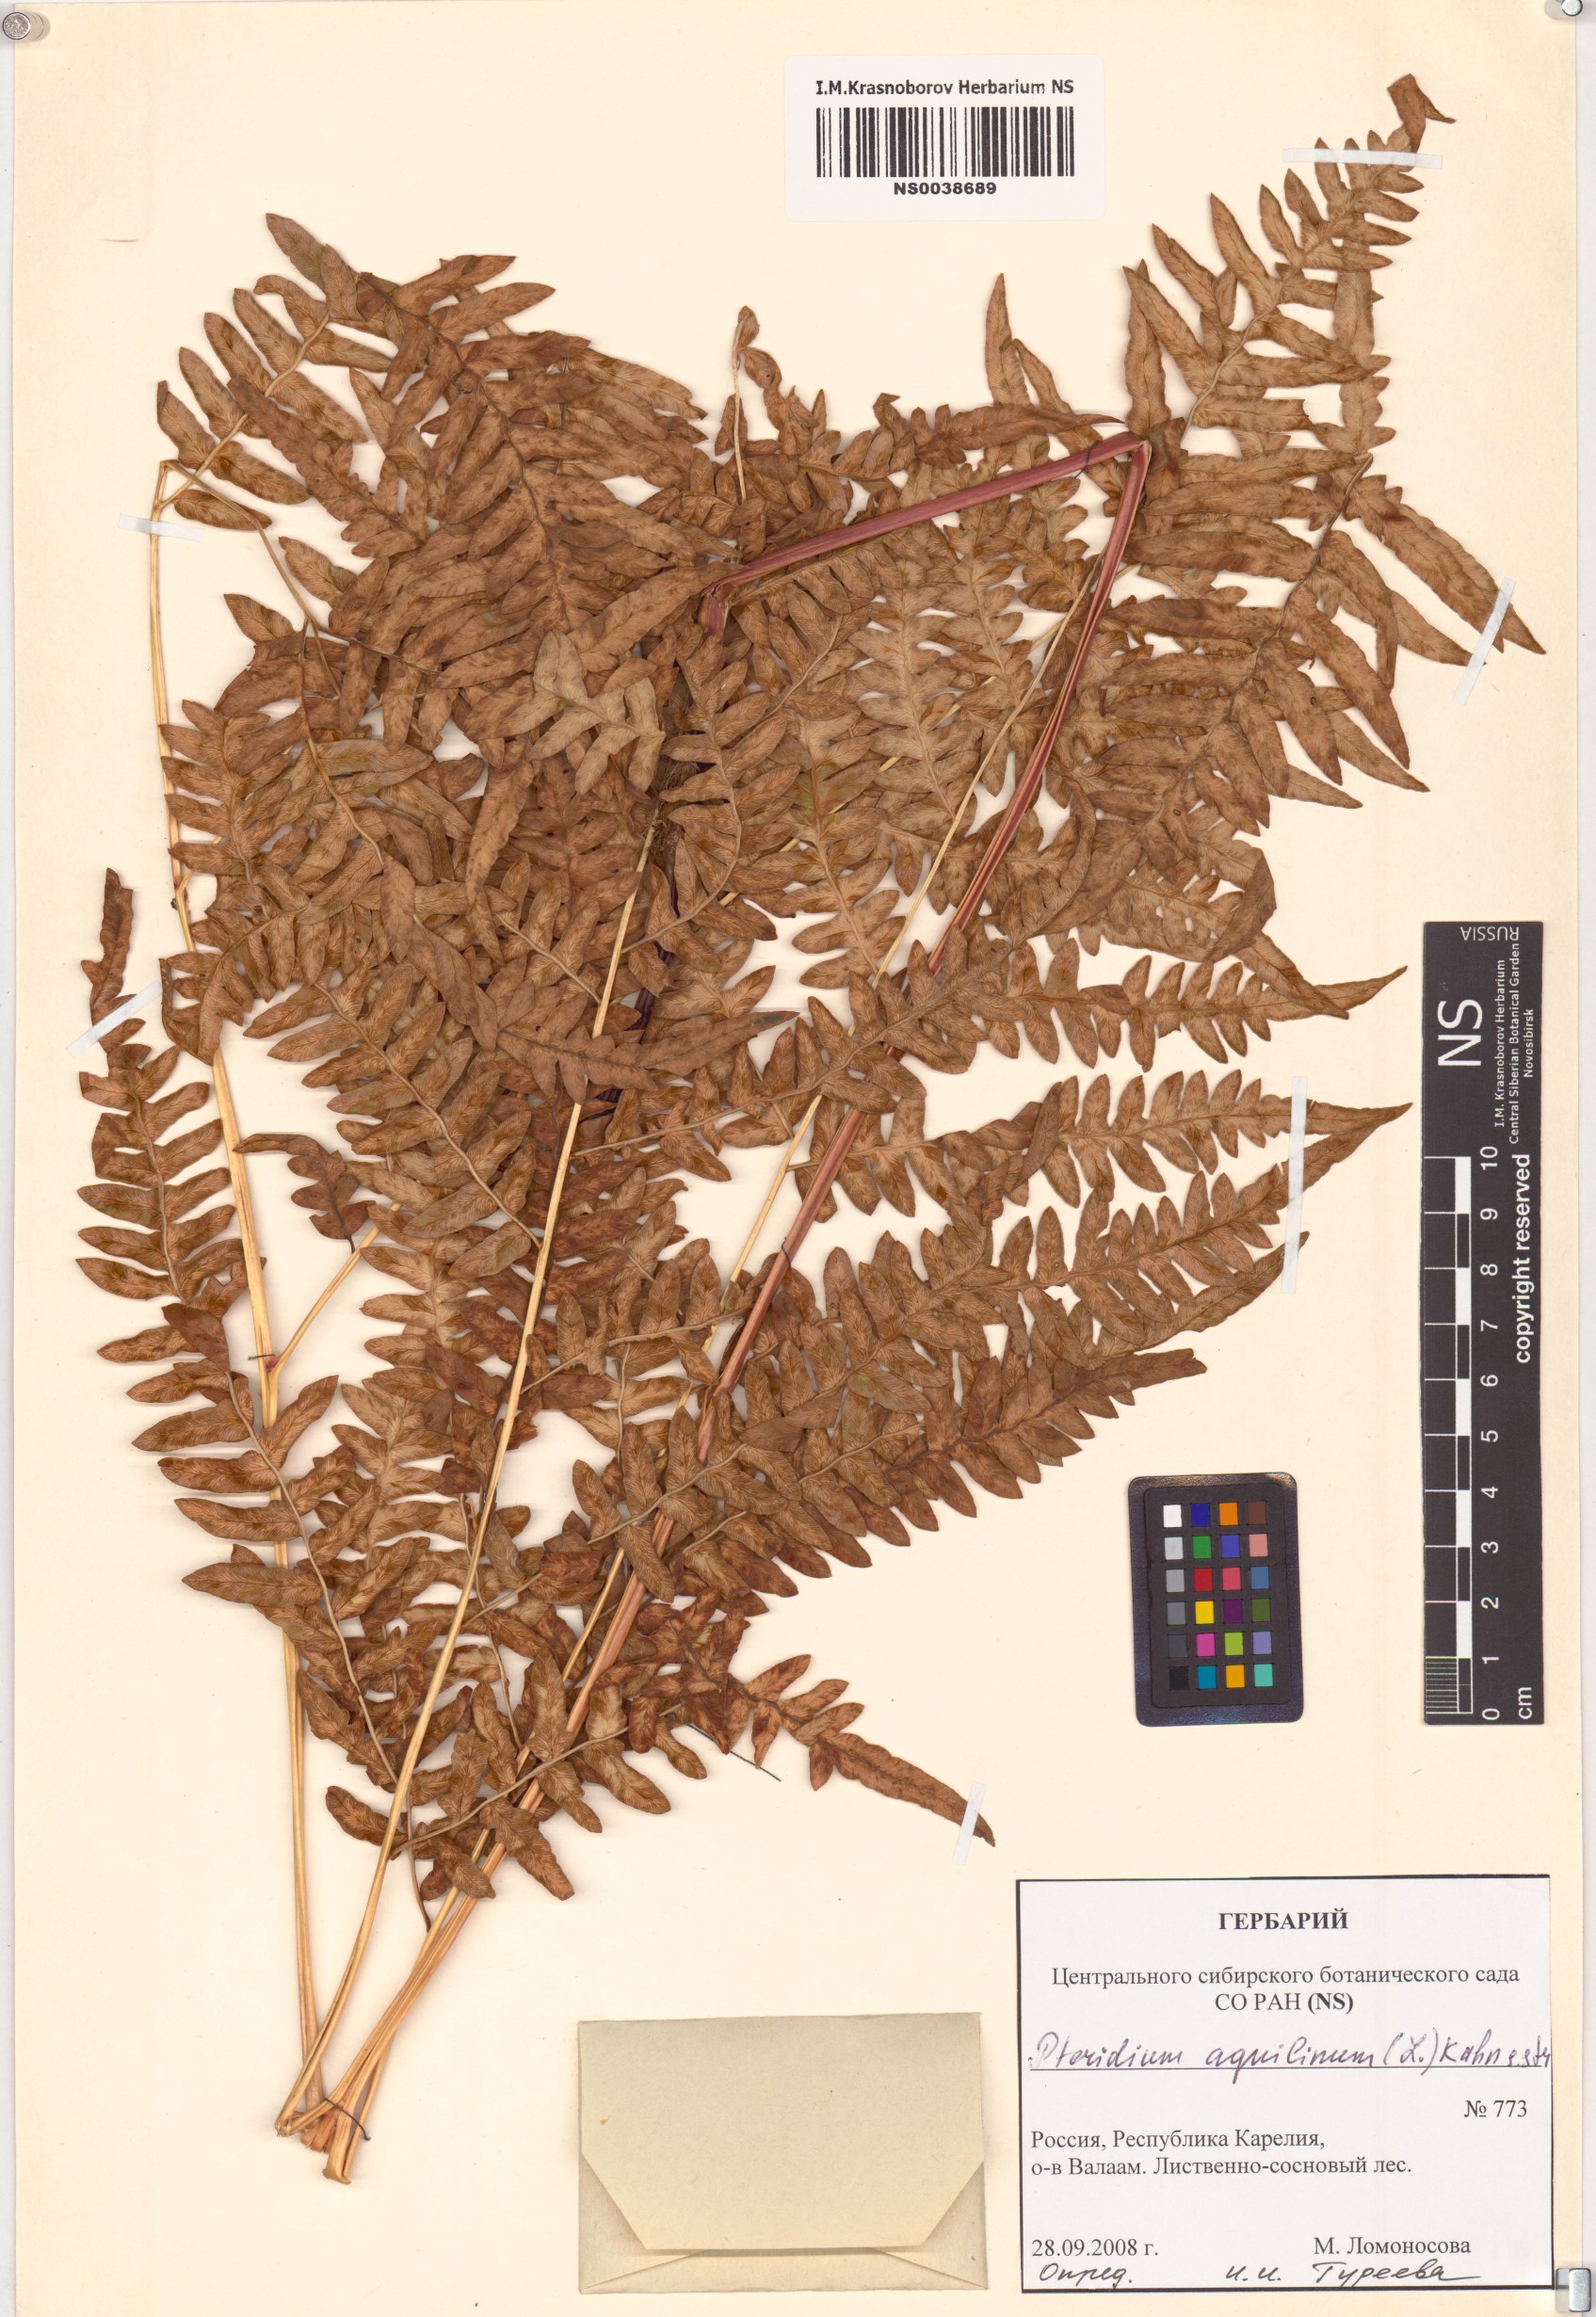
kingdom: Plantae
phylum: Tracheophyta
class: Polypodiopsida
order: Polypodiales
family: Dennstaedtiaceae
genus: Pteridium
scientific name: Pteridium aquilinum
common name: Bracken
